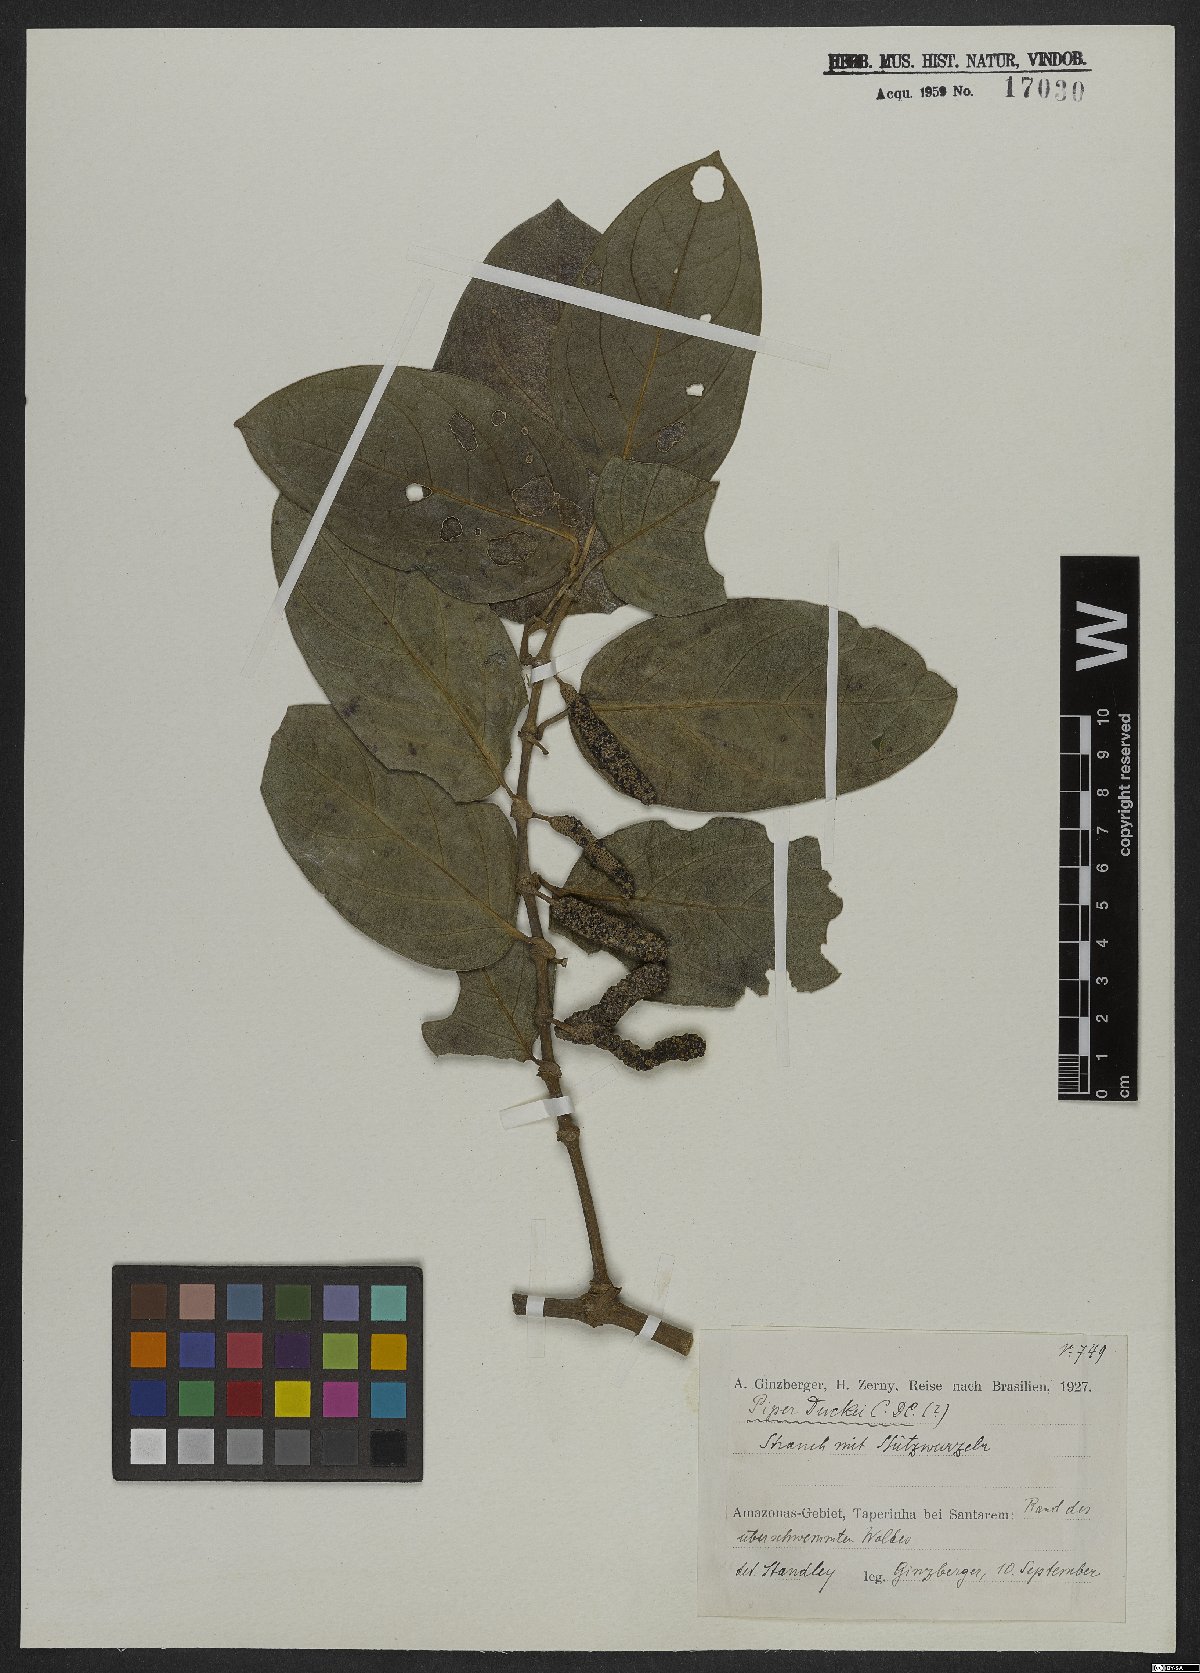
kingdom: Plantae
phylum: Tracheophyta
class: Magnoliopsida
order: Piperales
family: Piperaceae
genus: Piper
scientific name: Piper duckei
